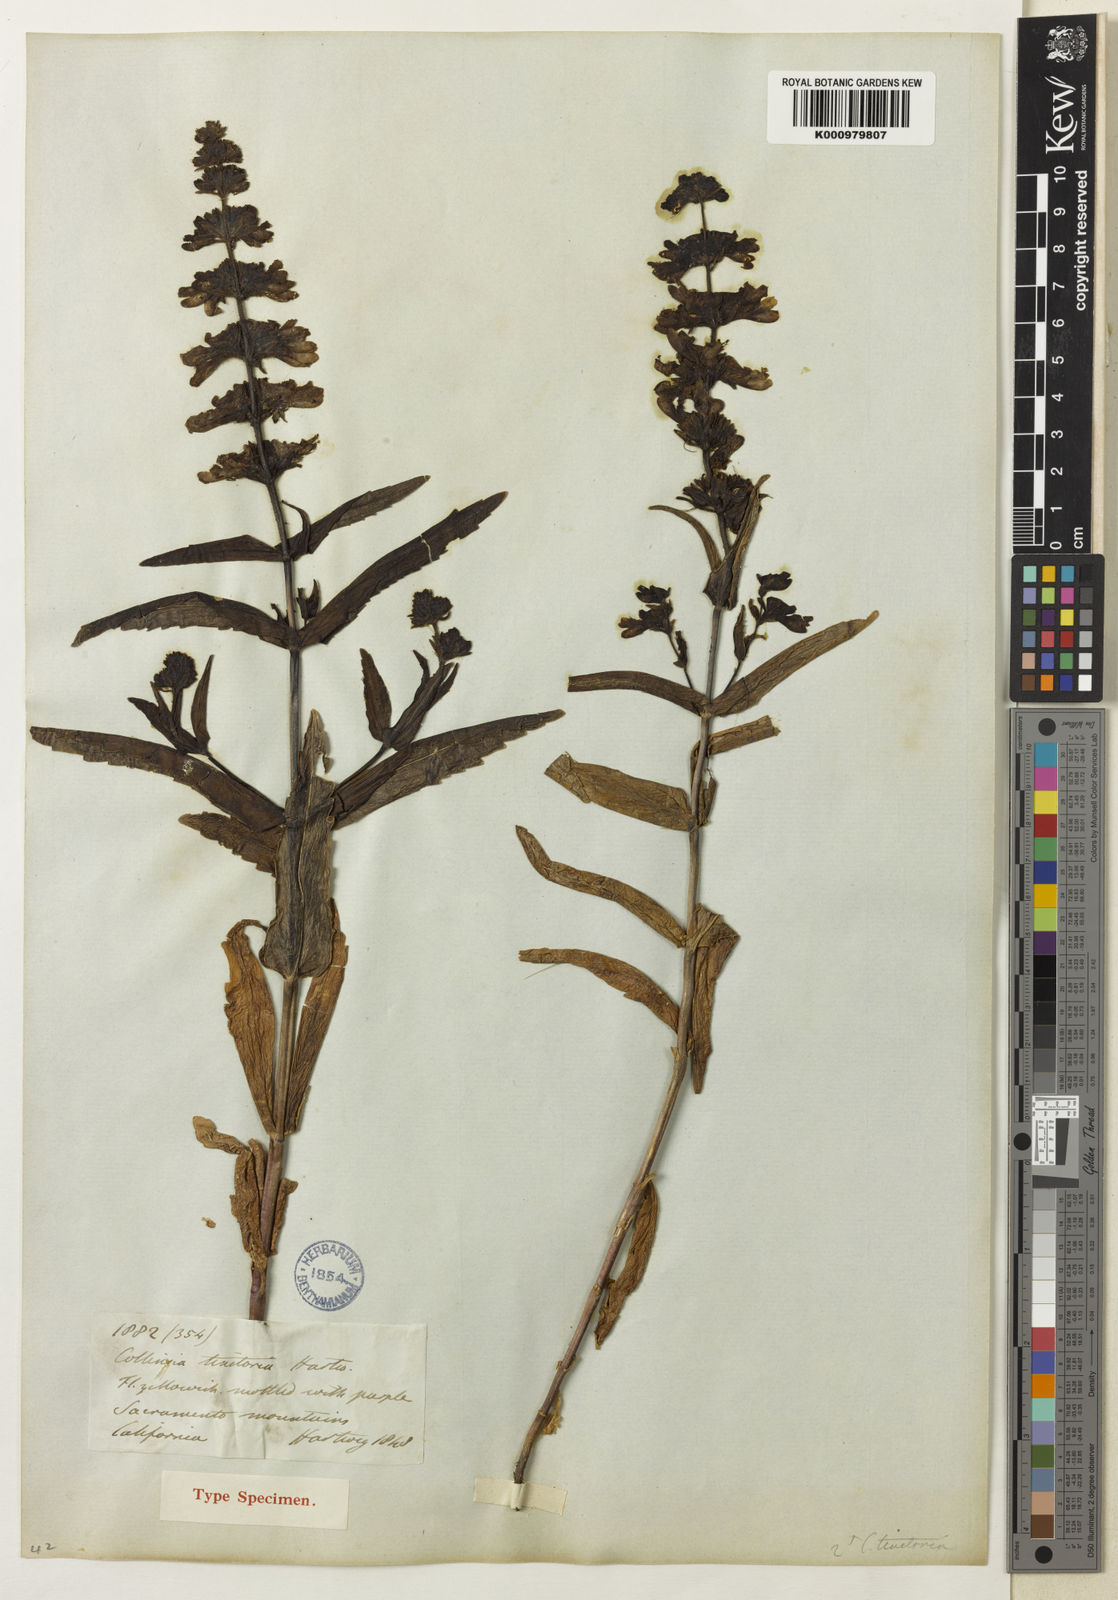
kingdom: Plantae
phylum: Tracheophyta
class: Magnoliopsida
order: Lamiales
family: Plantaginaceae
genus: Collinsia
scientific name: Collinsia tinctoria
